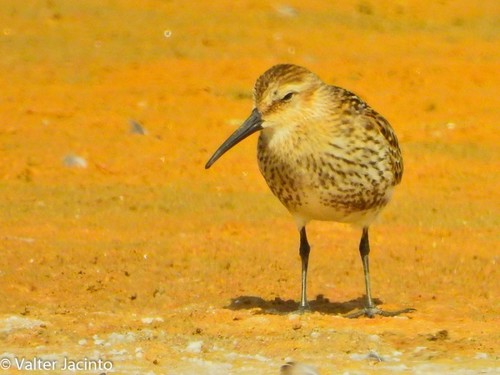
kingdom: Animalia
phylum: Chordata
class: Aves
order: Charadriiformes
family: Scolopacidae
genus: Calidris
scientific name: Calidris alpina
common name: Dunlin
